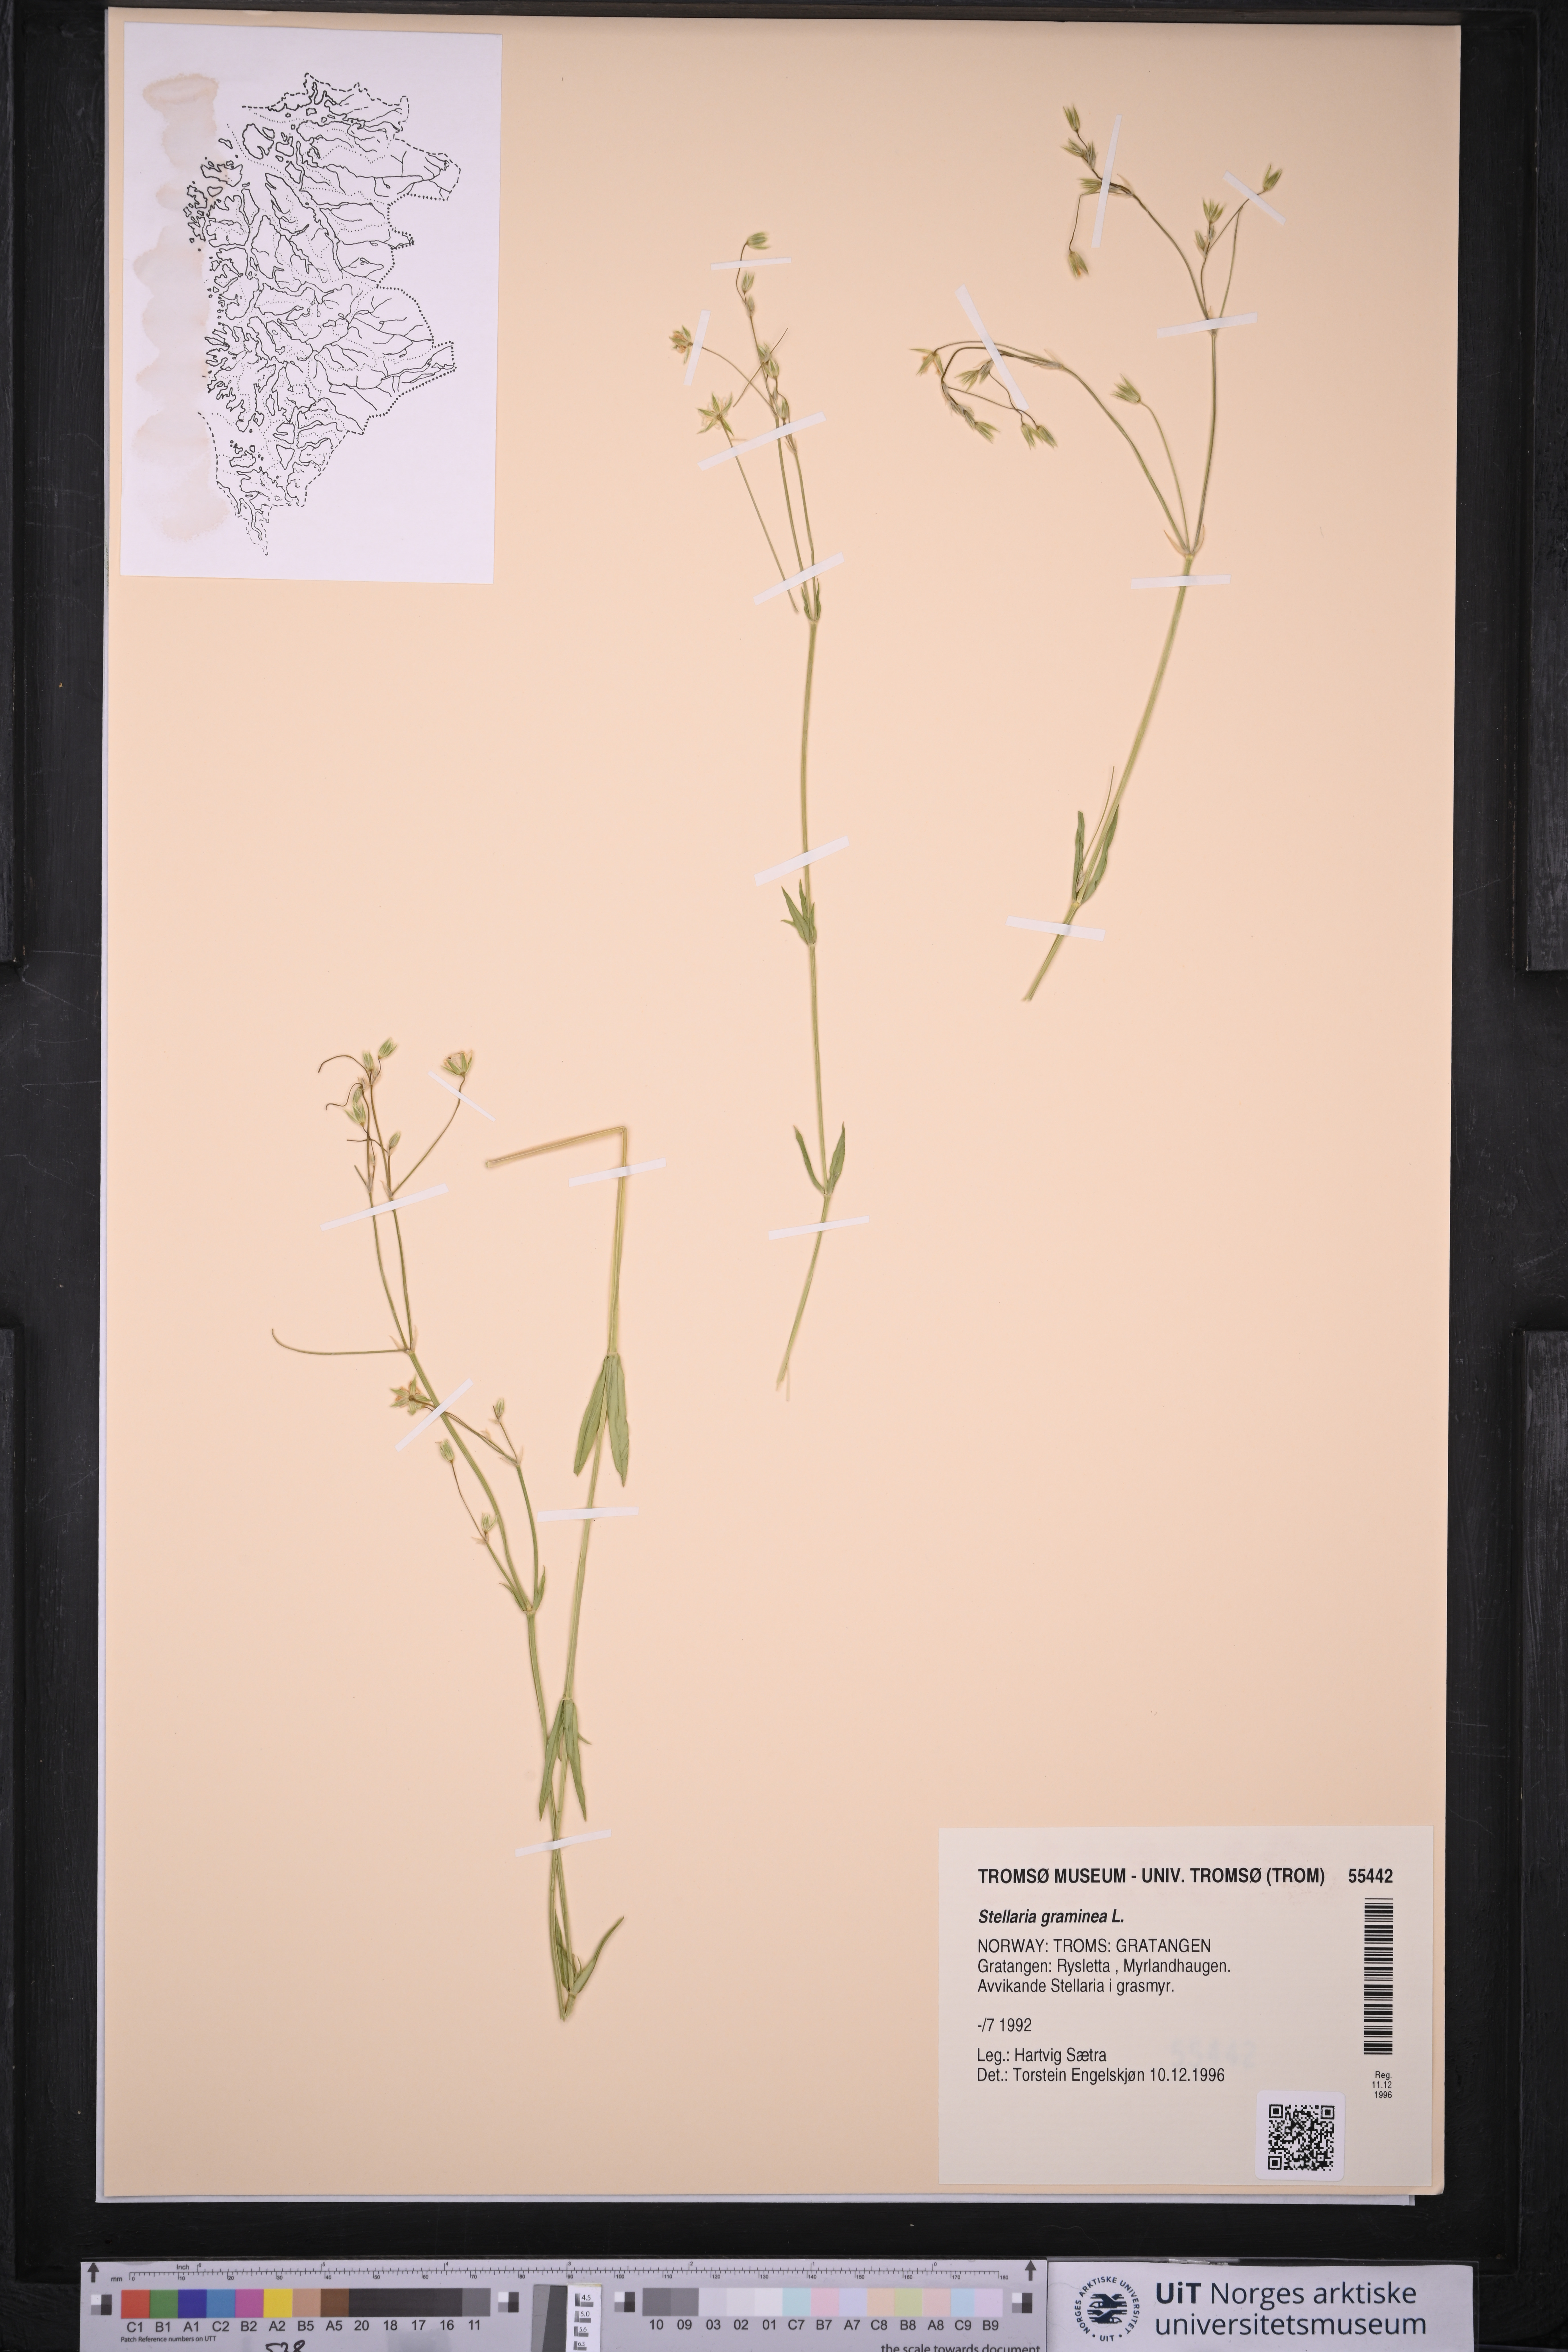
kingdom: Plantae
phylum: Tracheophyta
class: Magnoliopsida
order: Caryophyllales
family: Caryophyllaceae
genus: Stellaria
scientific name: Stellaria graminea
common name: Grass-like starwort
